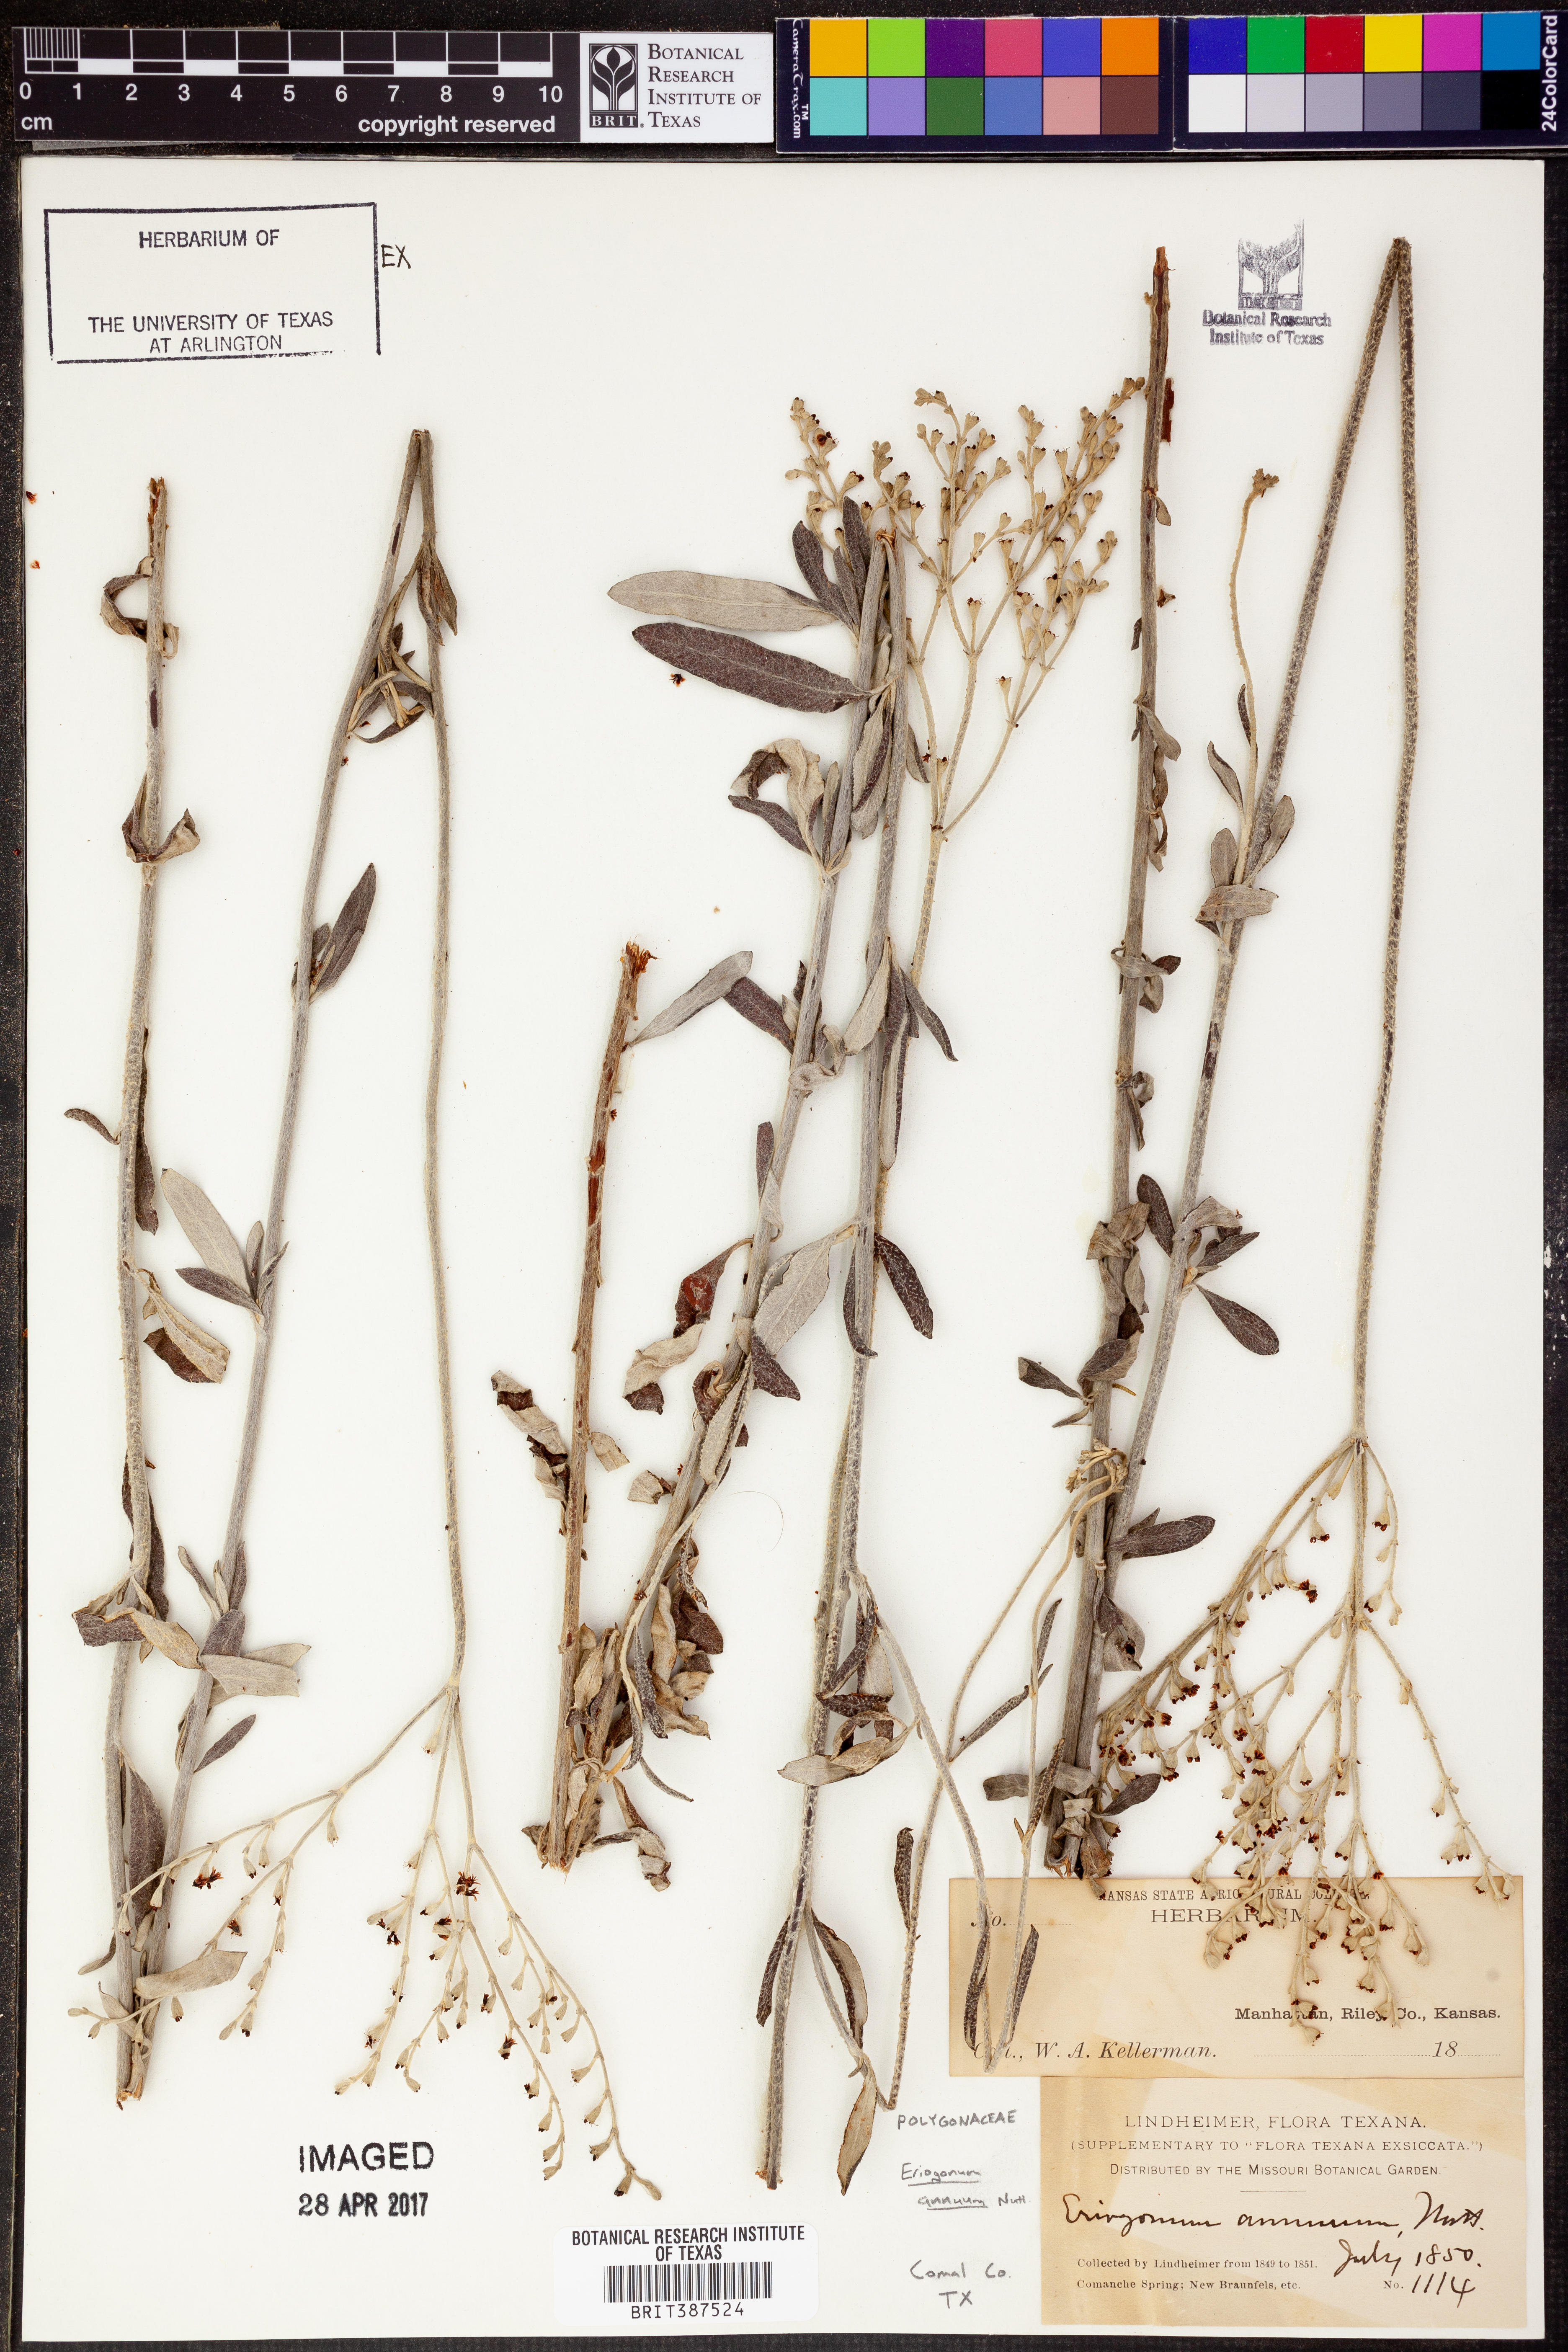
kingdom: Plantae
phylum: Tracheophyta
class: Magnoliopsida
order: Caryophyllales
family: Polygonaceae
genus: Eriogonum
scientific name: Eriogonum annuum
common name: Annual wild buckwheat
